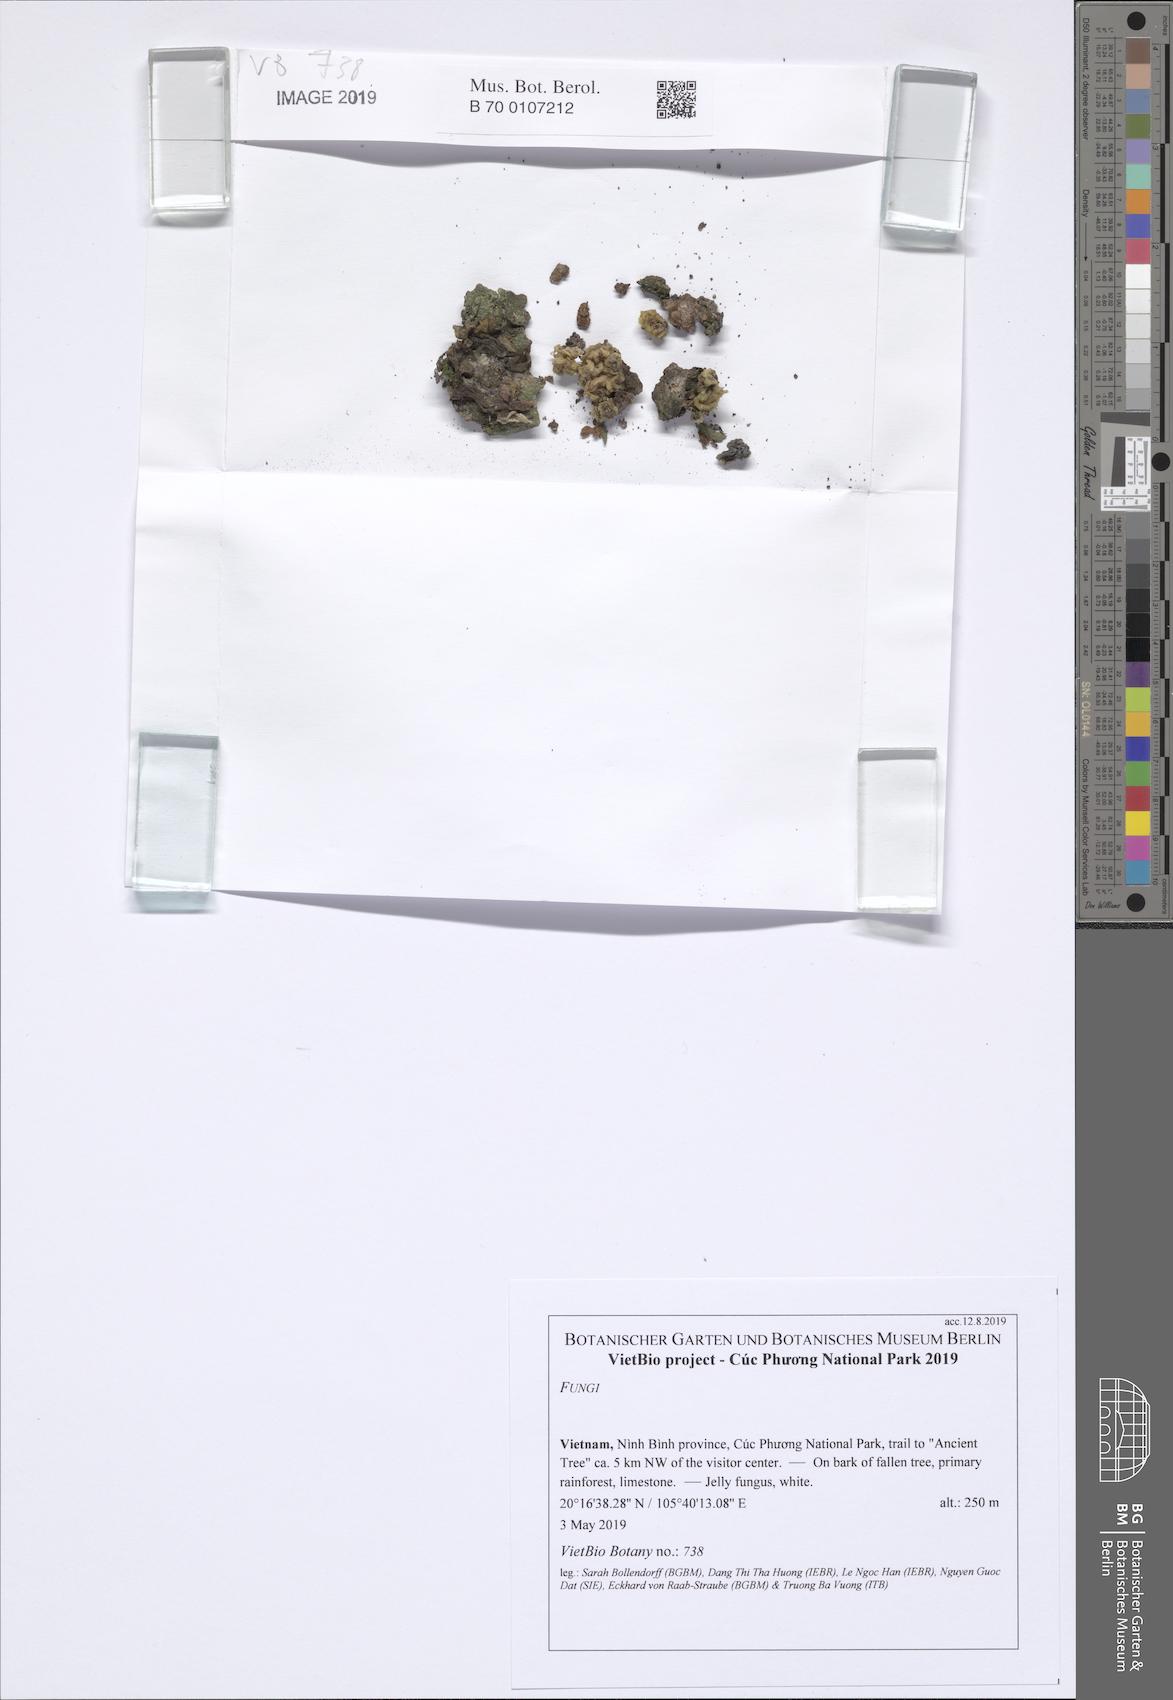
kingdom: Fungi
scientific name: Fungi
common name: Fungi
